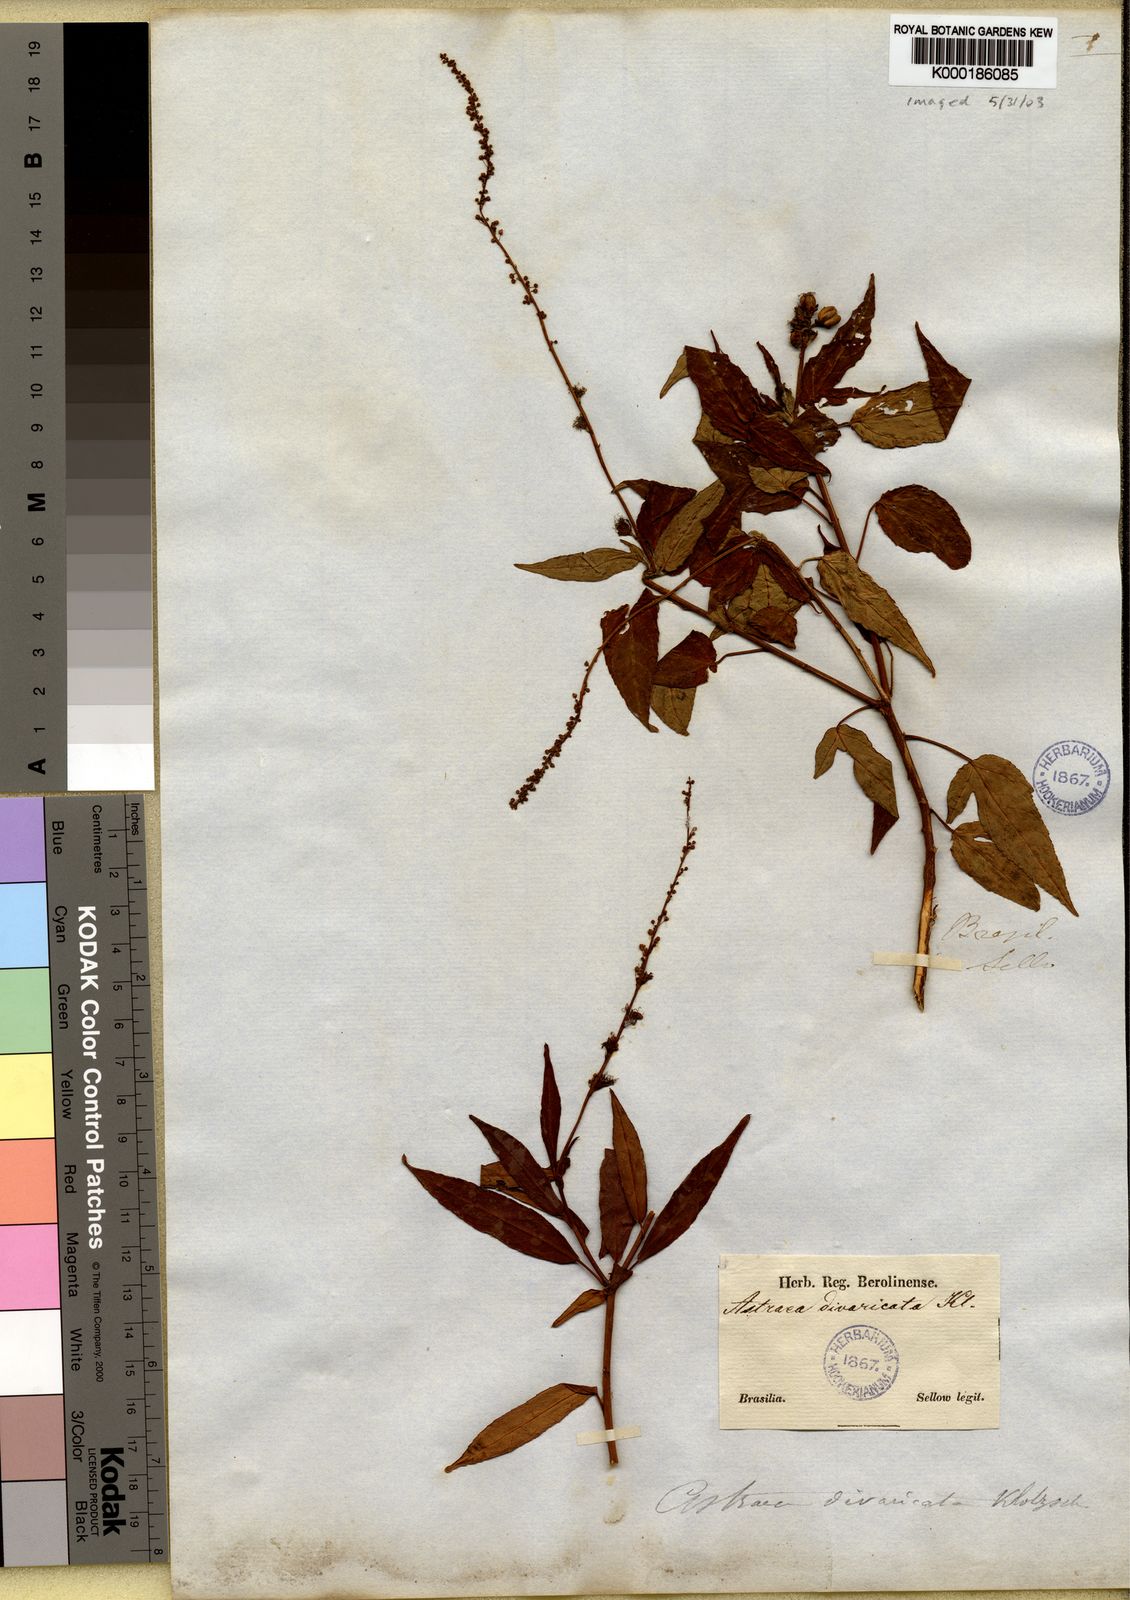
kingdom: Plantae
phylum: Tracheophyta
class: Magnoliopsida
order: Malpighiales
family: Euphorbiaceae
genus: Astraea
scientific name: Astraea
